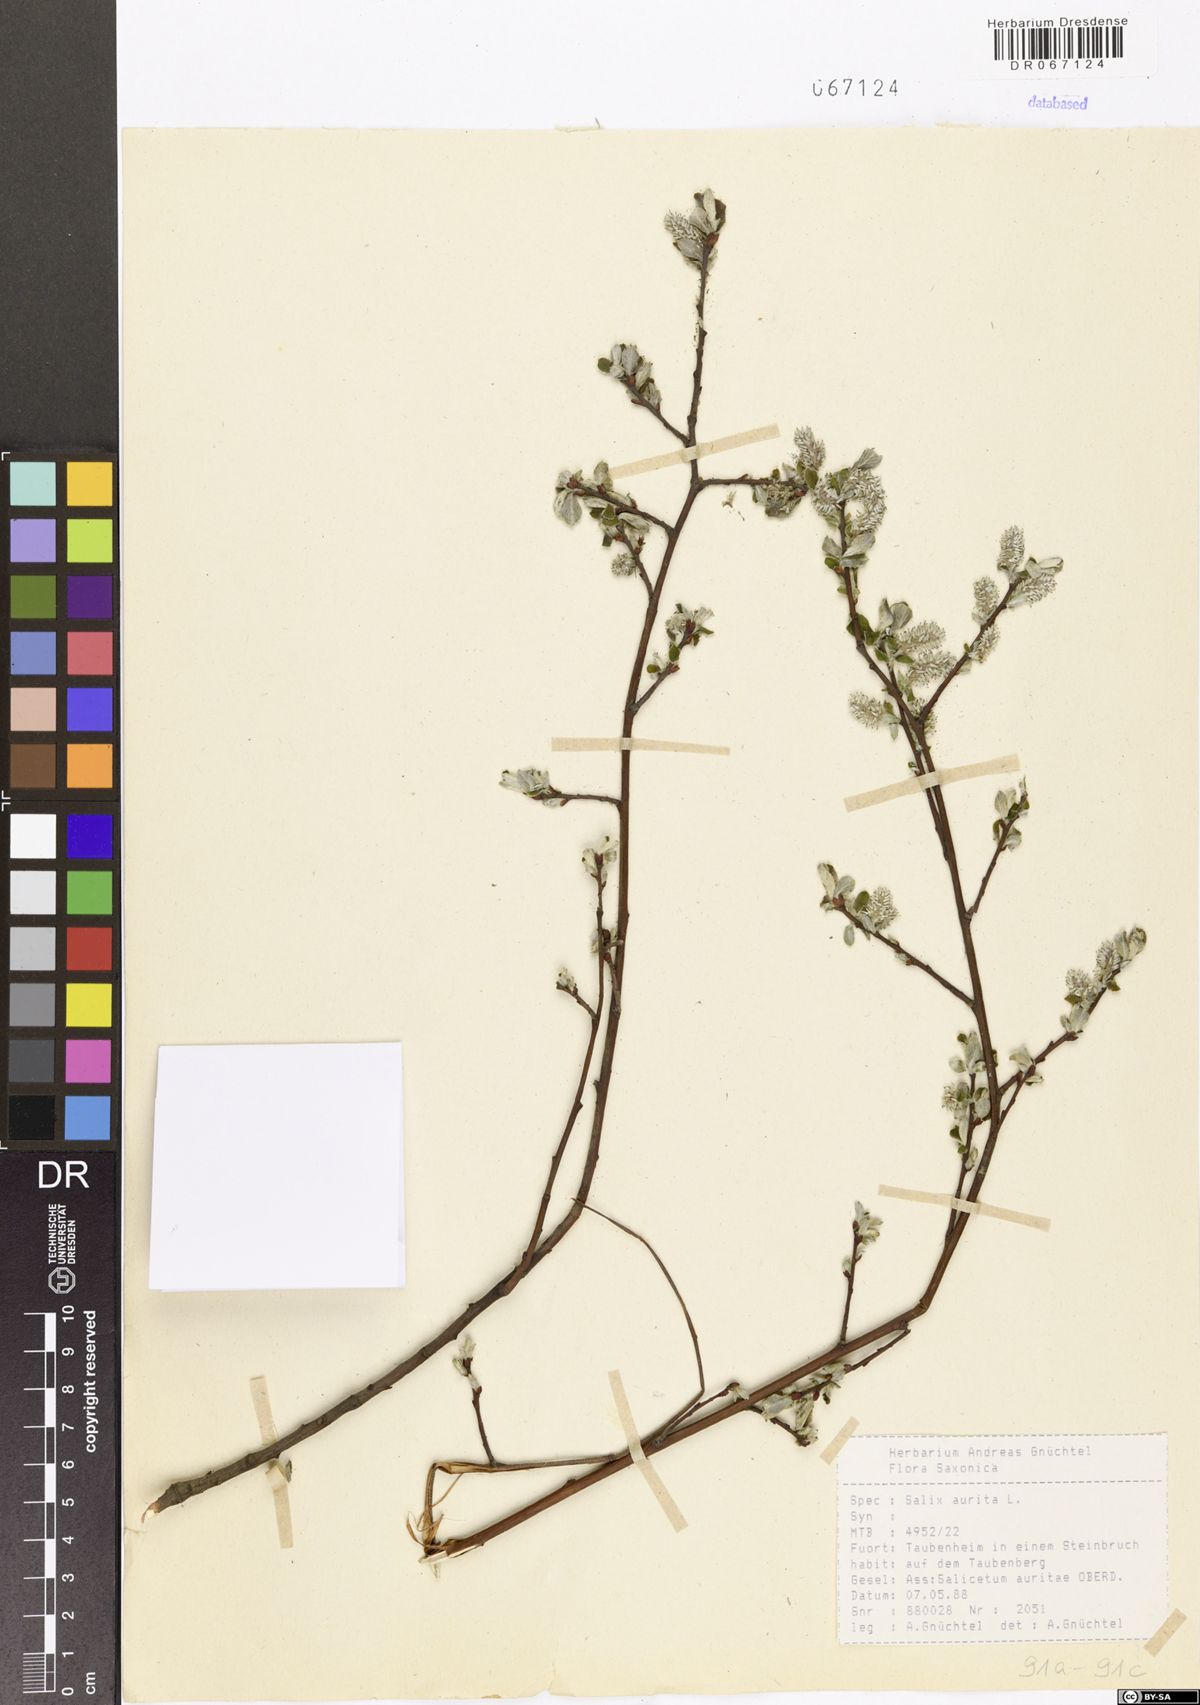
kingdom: Plantae
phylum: Tracheophyta
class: Magnoliopsida
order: Malpighiales
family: Salicaceae
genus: Salix
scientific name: Salix aurita
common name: Eared willow
